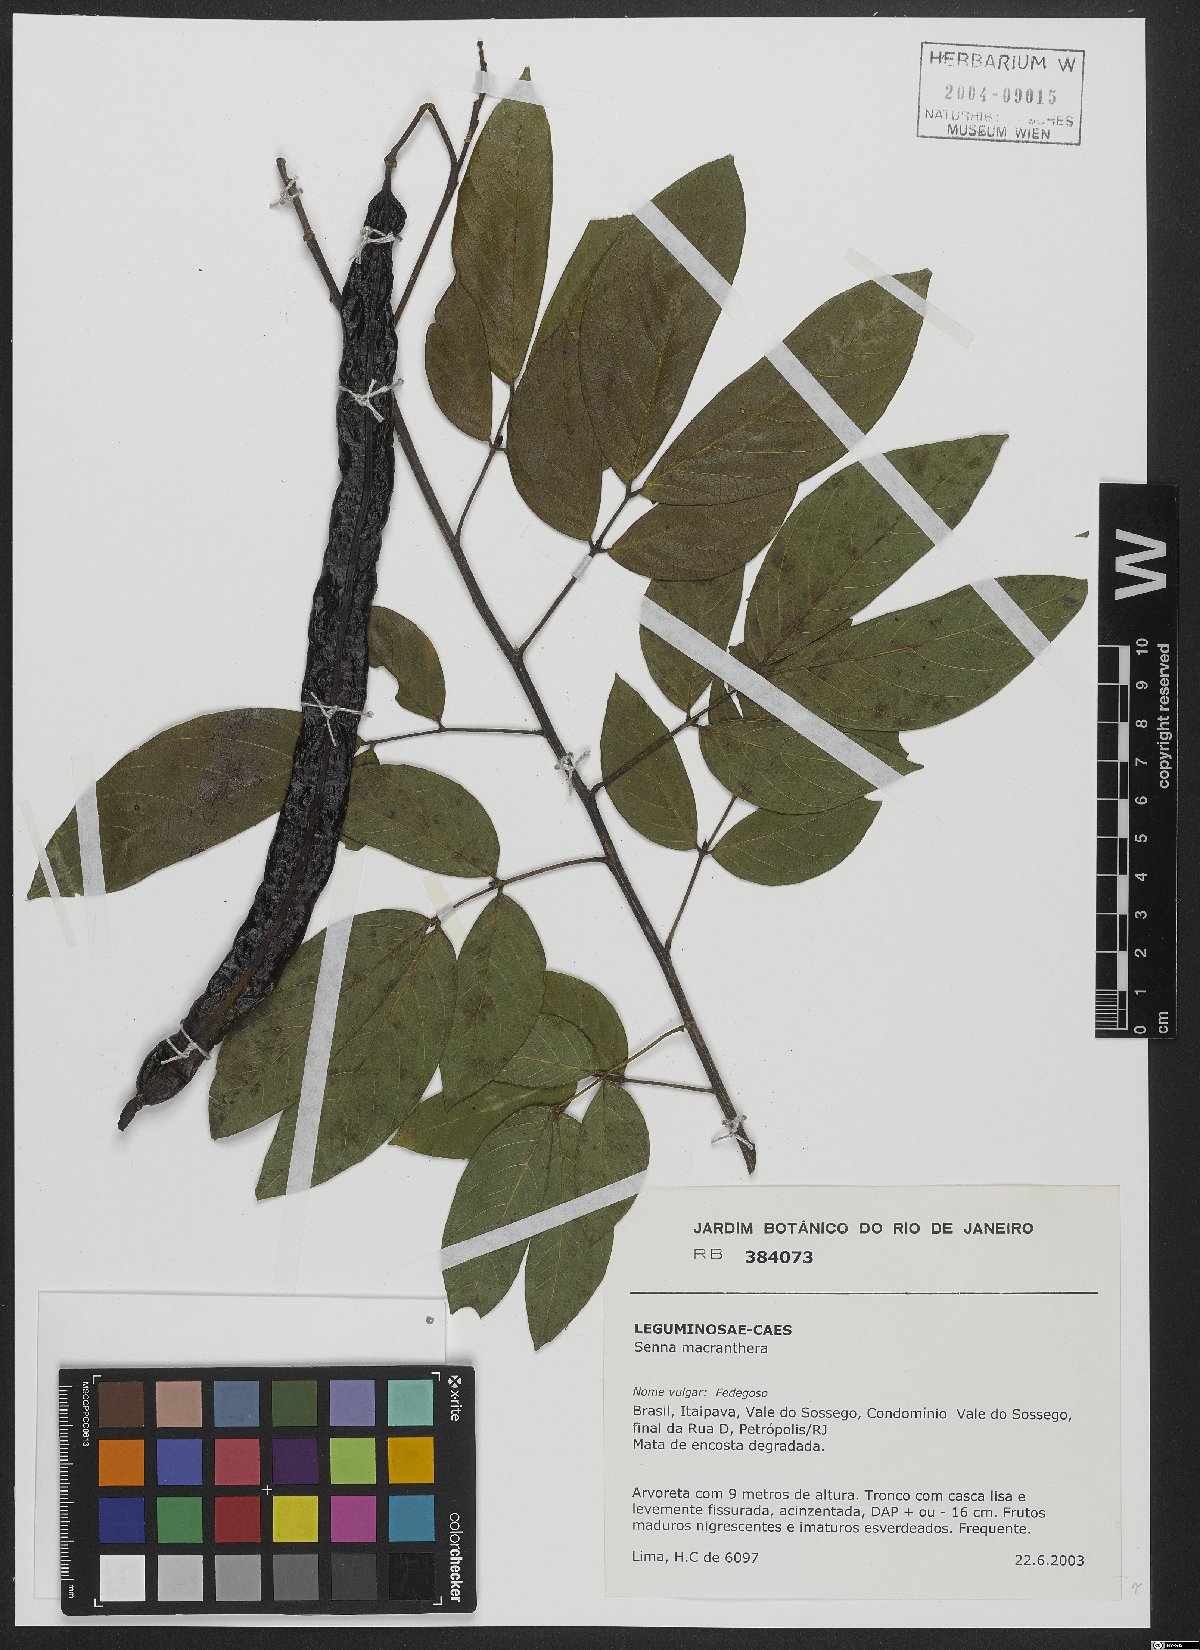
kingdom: Plantae
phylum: Tracheophyta
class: Magnoliopsida
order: Fabales
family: Fabaceae
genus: Senna
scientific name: Senna macranthera
